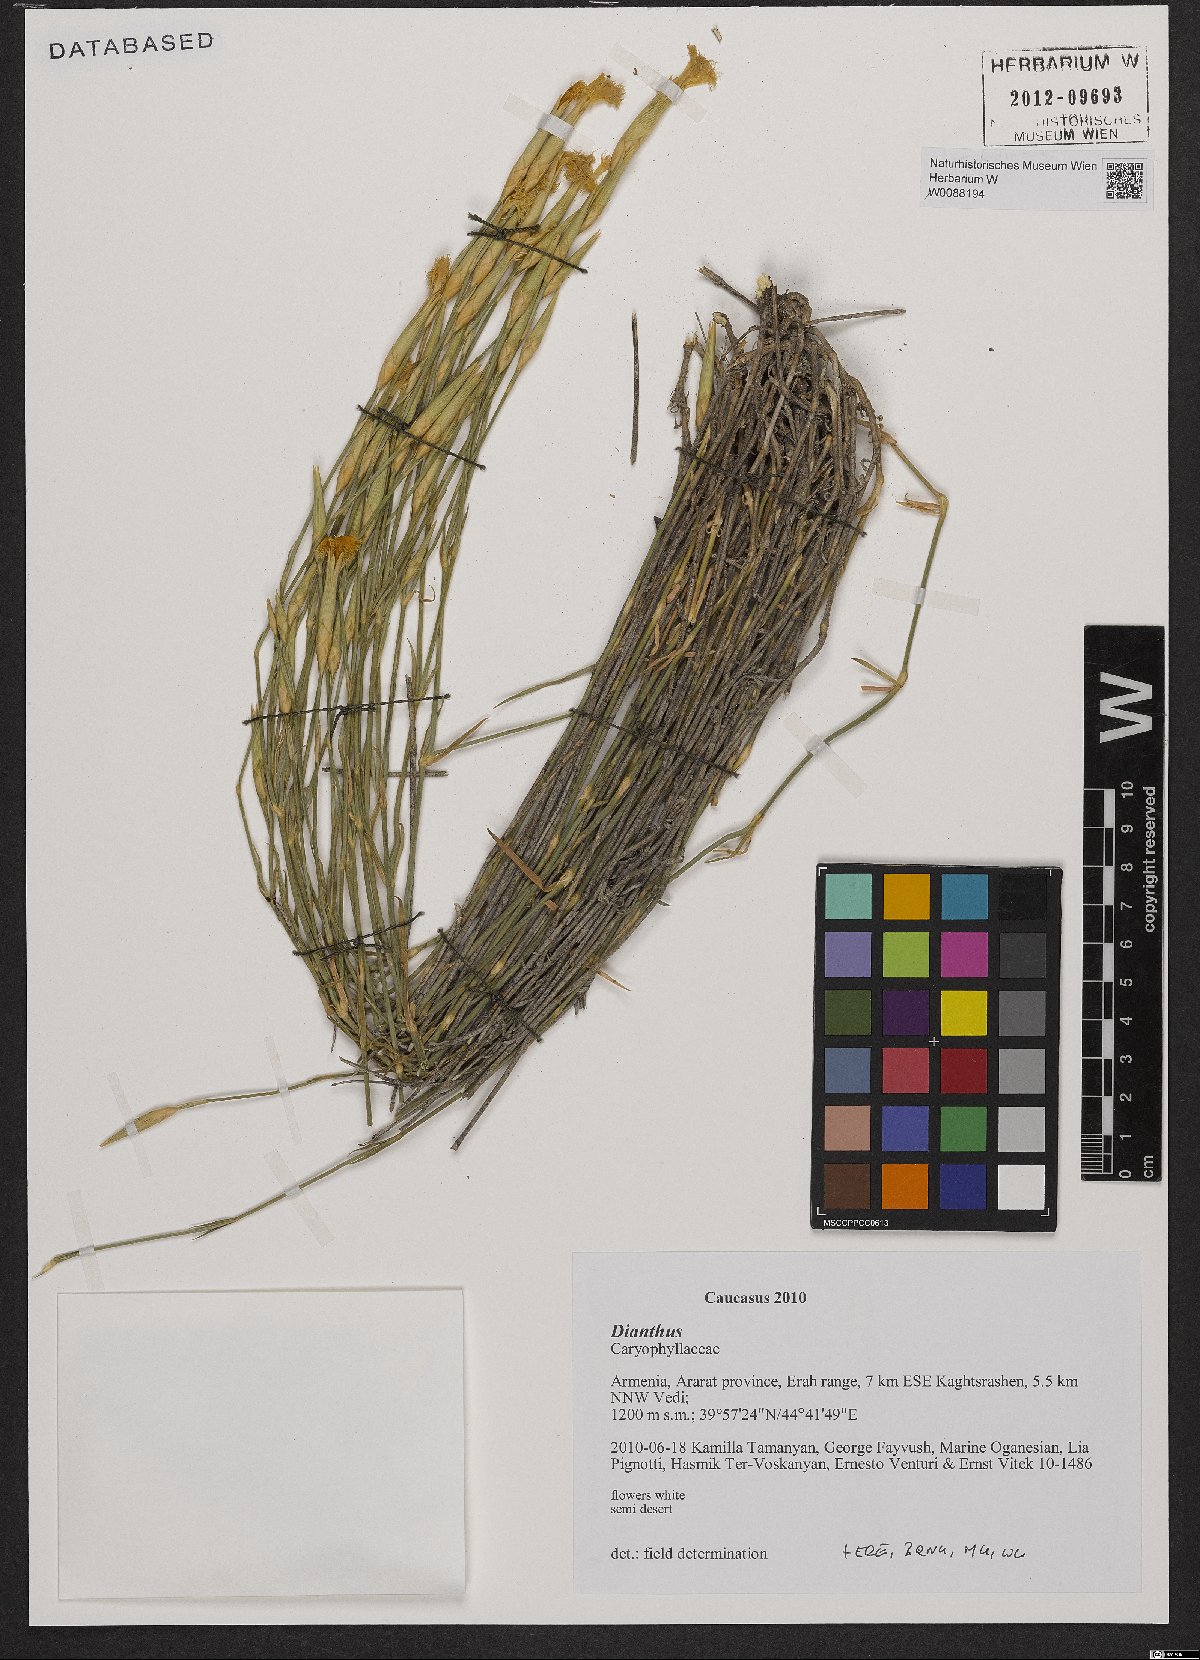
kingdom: Plantae
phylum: Tracheophyta
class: Magnoliopsida
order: Caryophyllales
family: Caryophyllaceae
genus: Dianthus
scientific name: Dianthus
